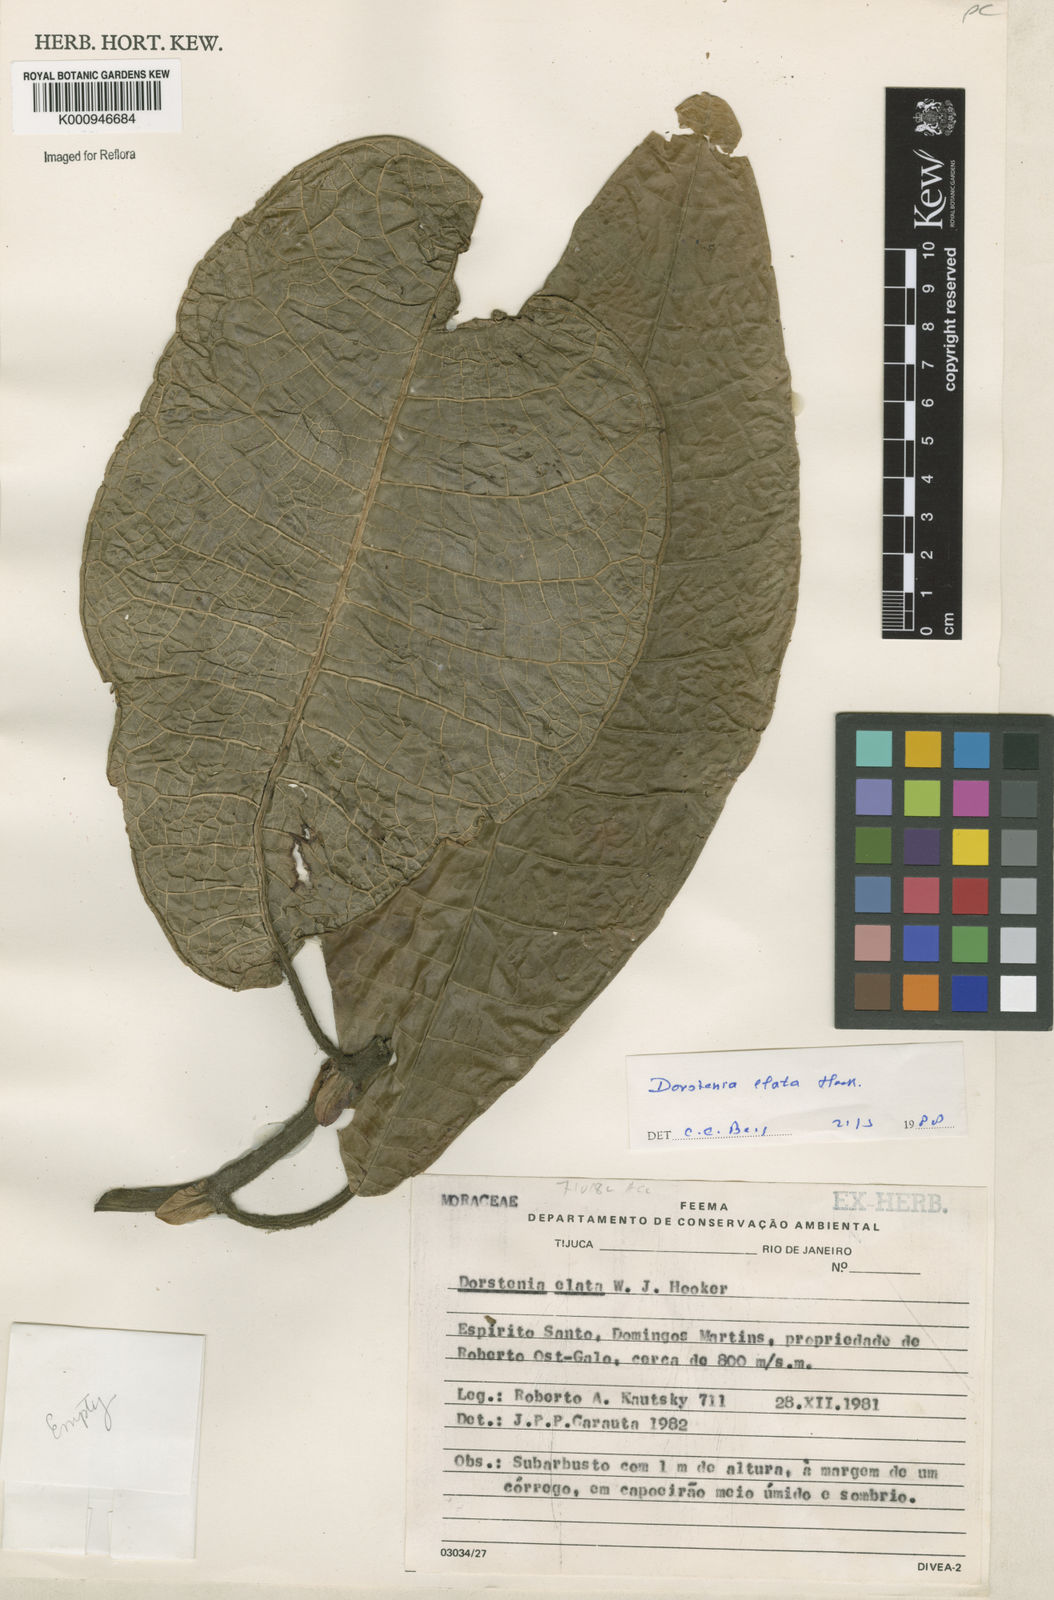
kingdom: Plantae
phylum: Tracheophyta
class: Magnoliopsida
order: Rosales
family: Moraceae
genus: Dorstenia
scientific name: Dorstenia
